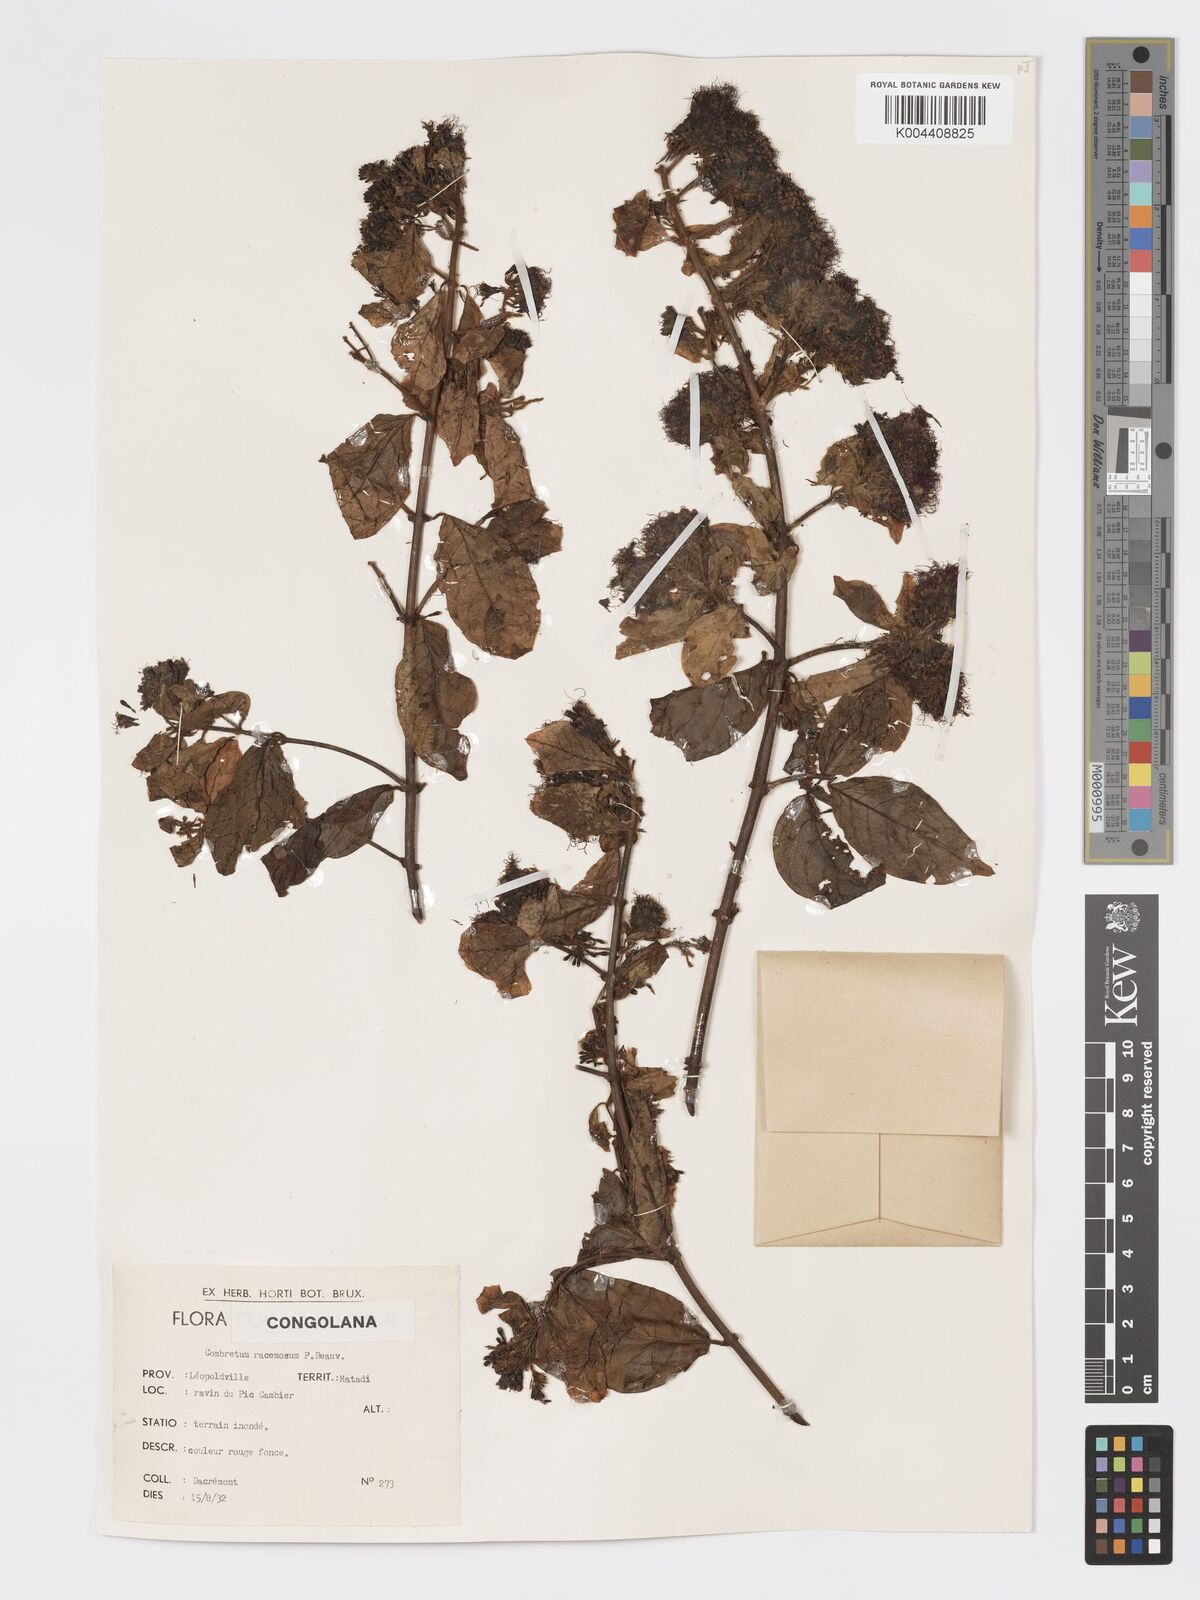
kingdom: Plantae
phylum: Tracheophyta
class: Magnoliopsida
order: Myrtales
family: Combretaceae
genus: Combretum
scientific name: Combretum racemosum
